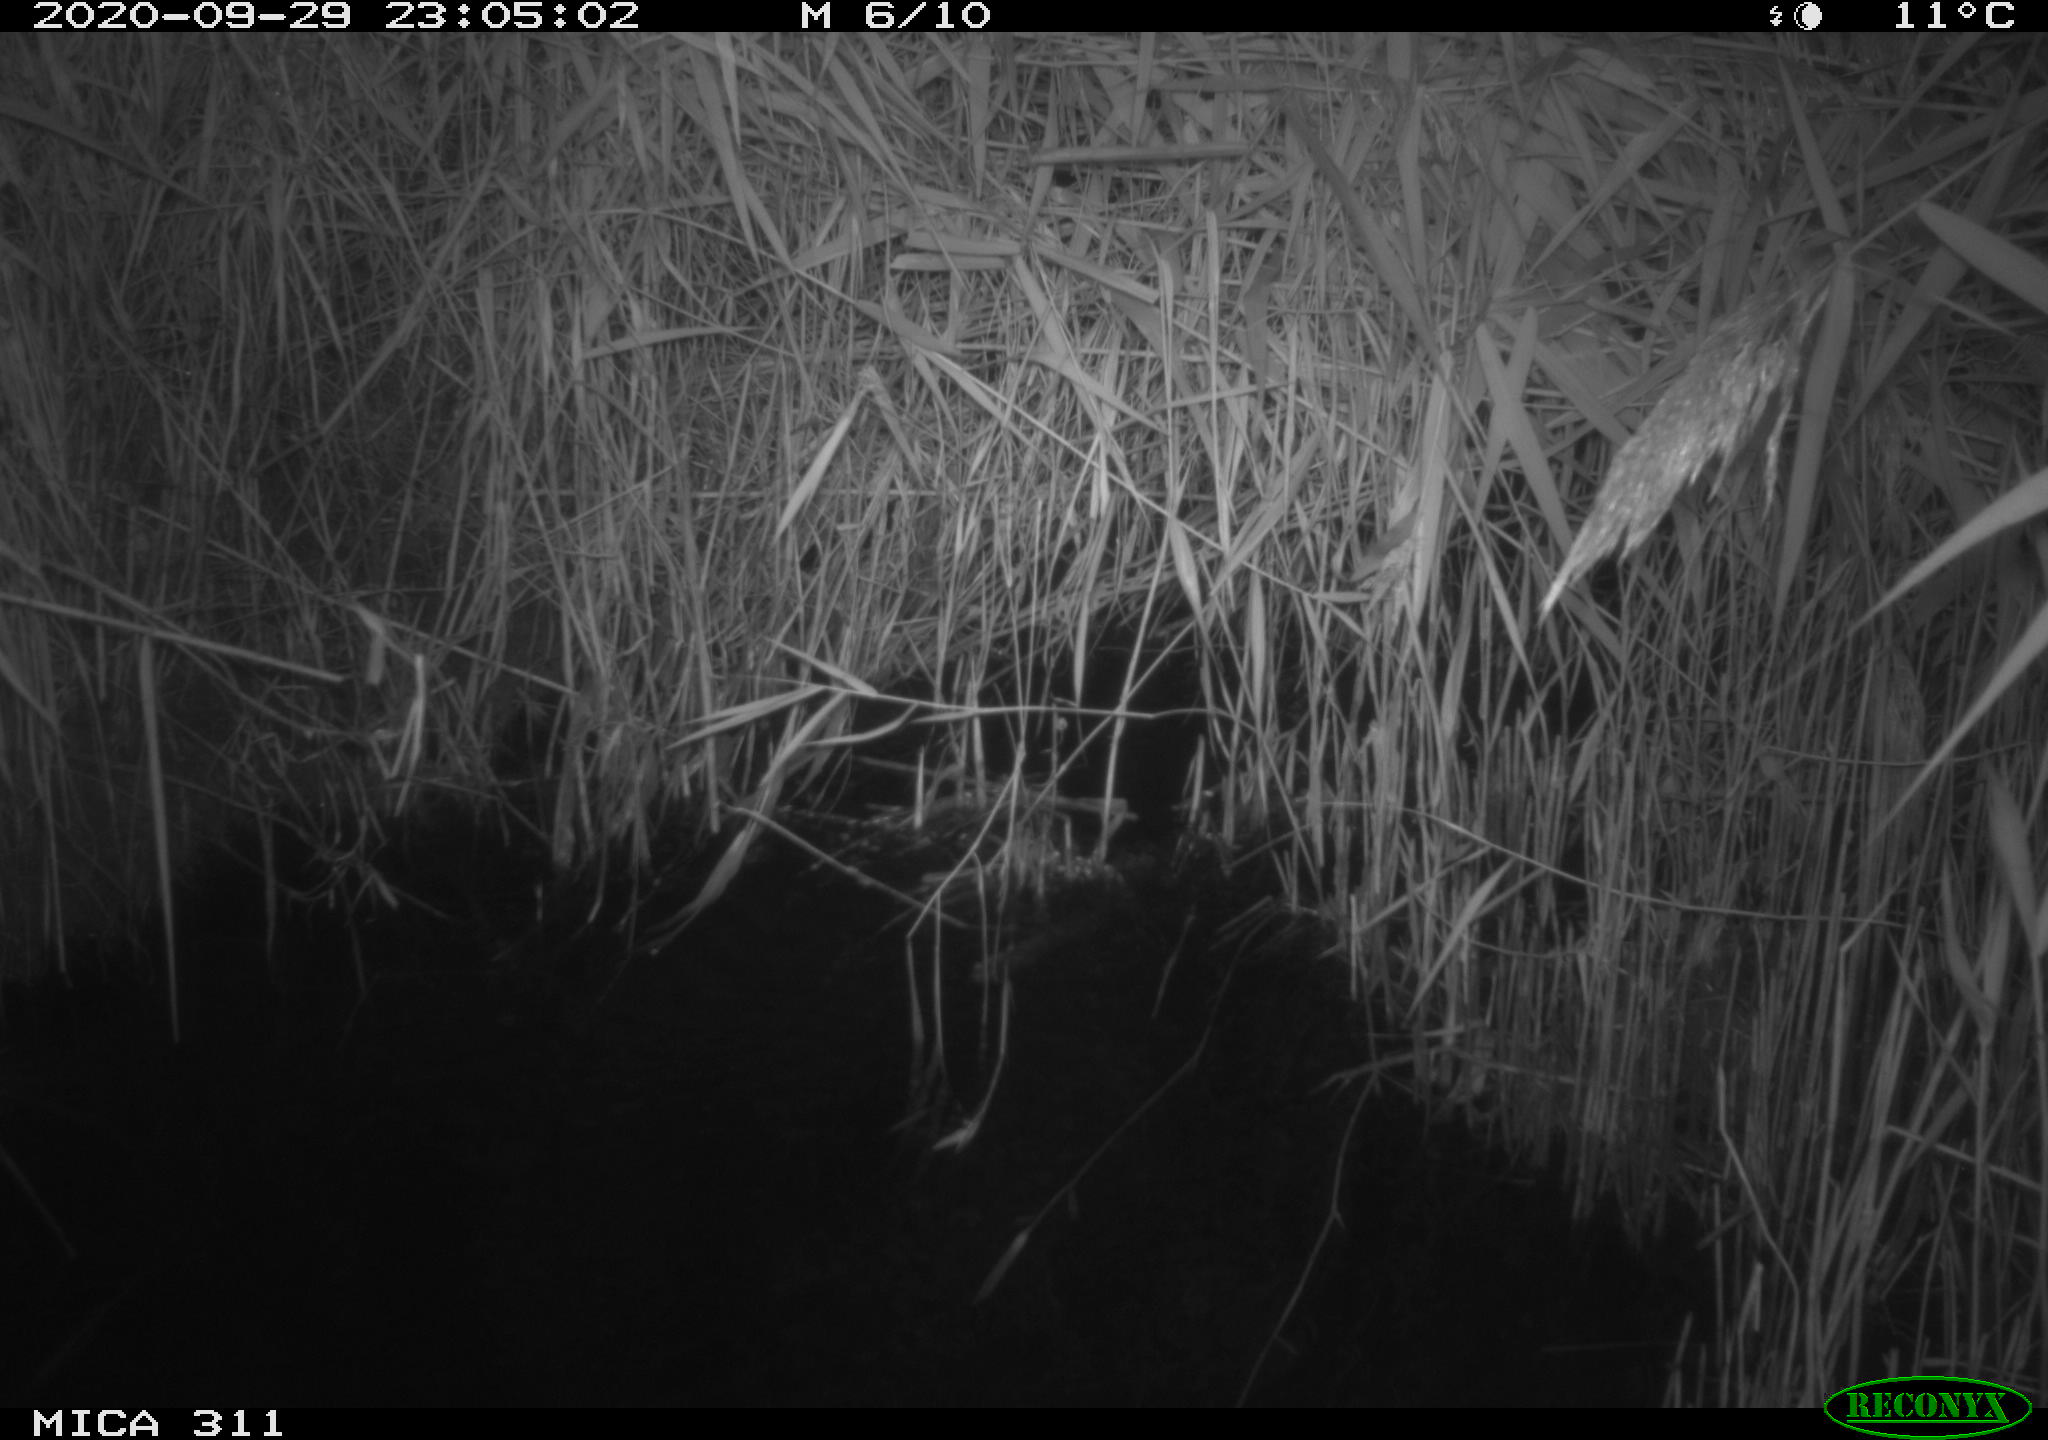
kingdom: Animalia
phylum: Chordata
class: Mammalia
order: Rodentia
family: Muridae
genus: Rattus
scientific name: Rattus norvegicus
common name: Brown rat
